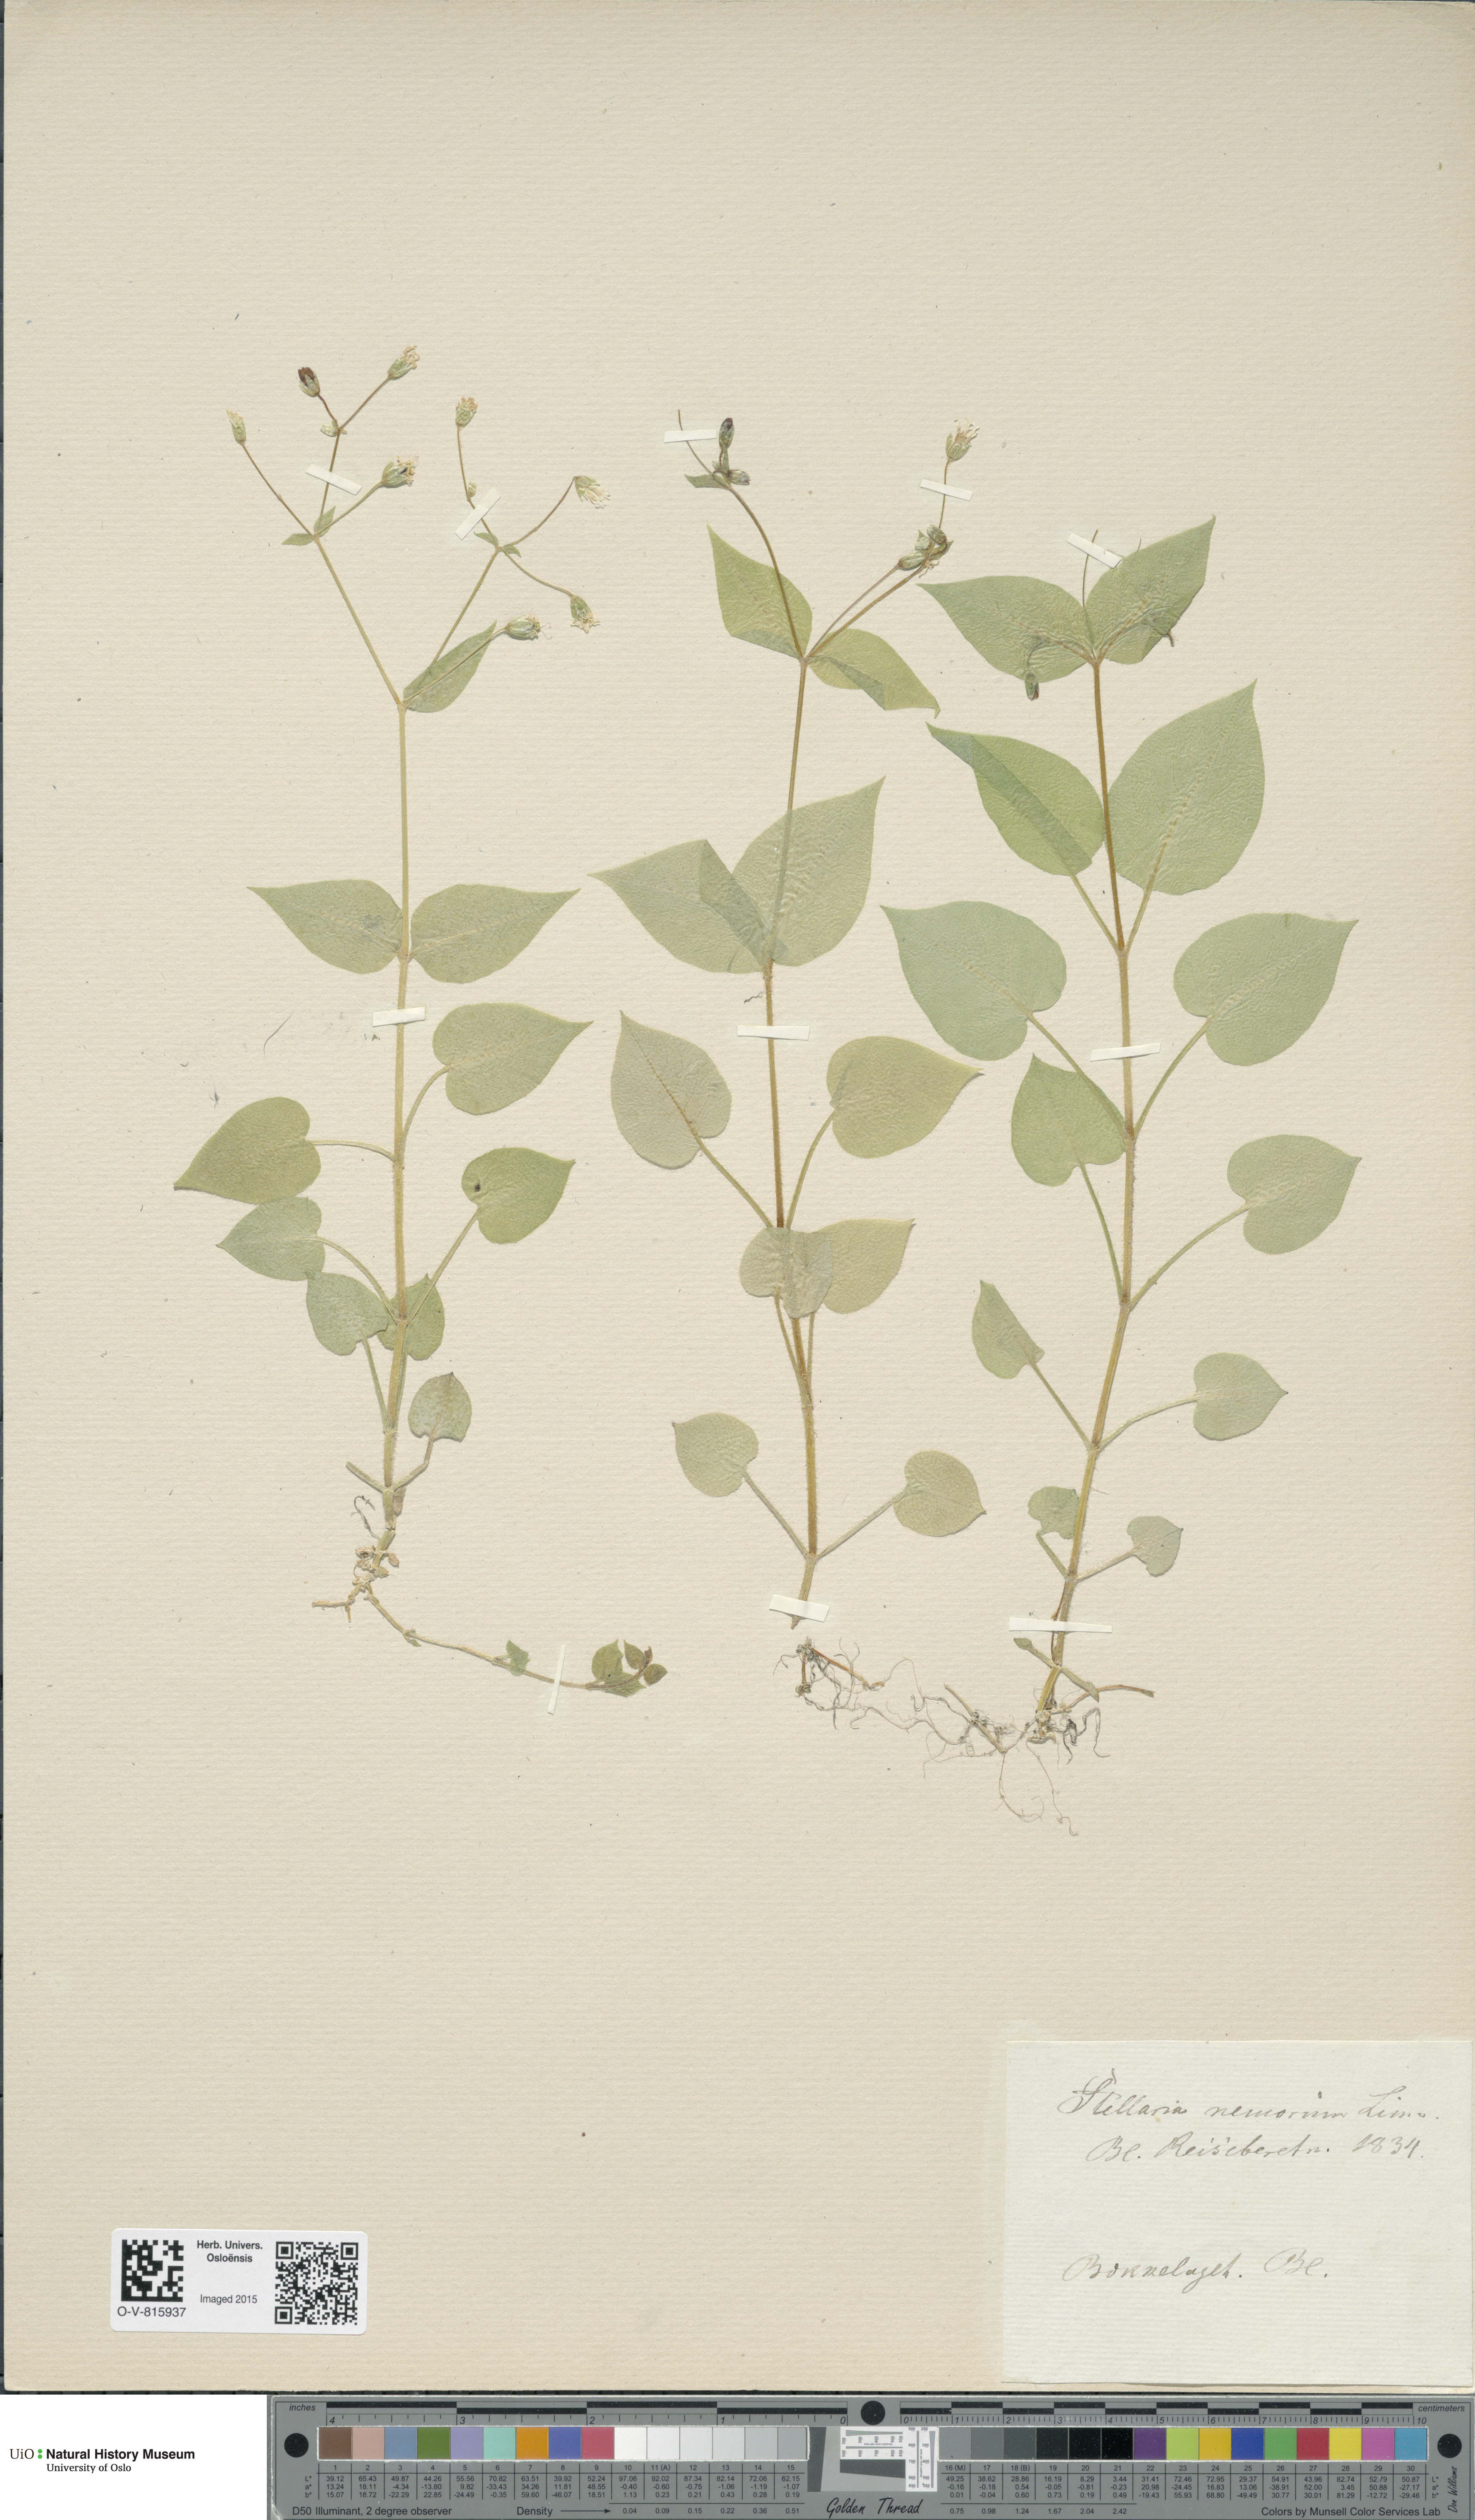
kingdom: Plantae
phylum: Tracheophyta
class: Magnoliopsida
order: Caryophyllales
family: Caryophyllaceae
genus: Stellaria
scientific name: Stellaria nemorum
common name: Wood stitchwort
